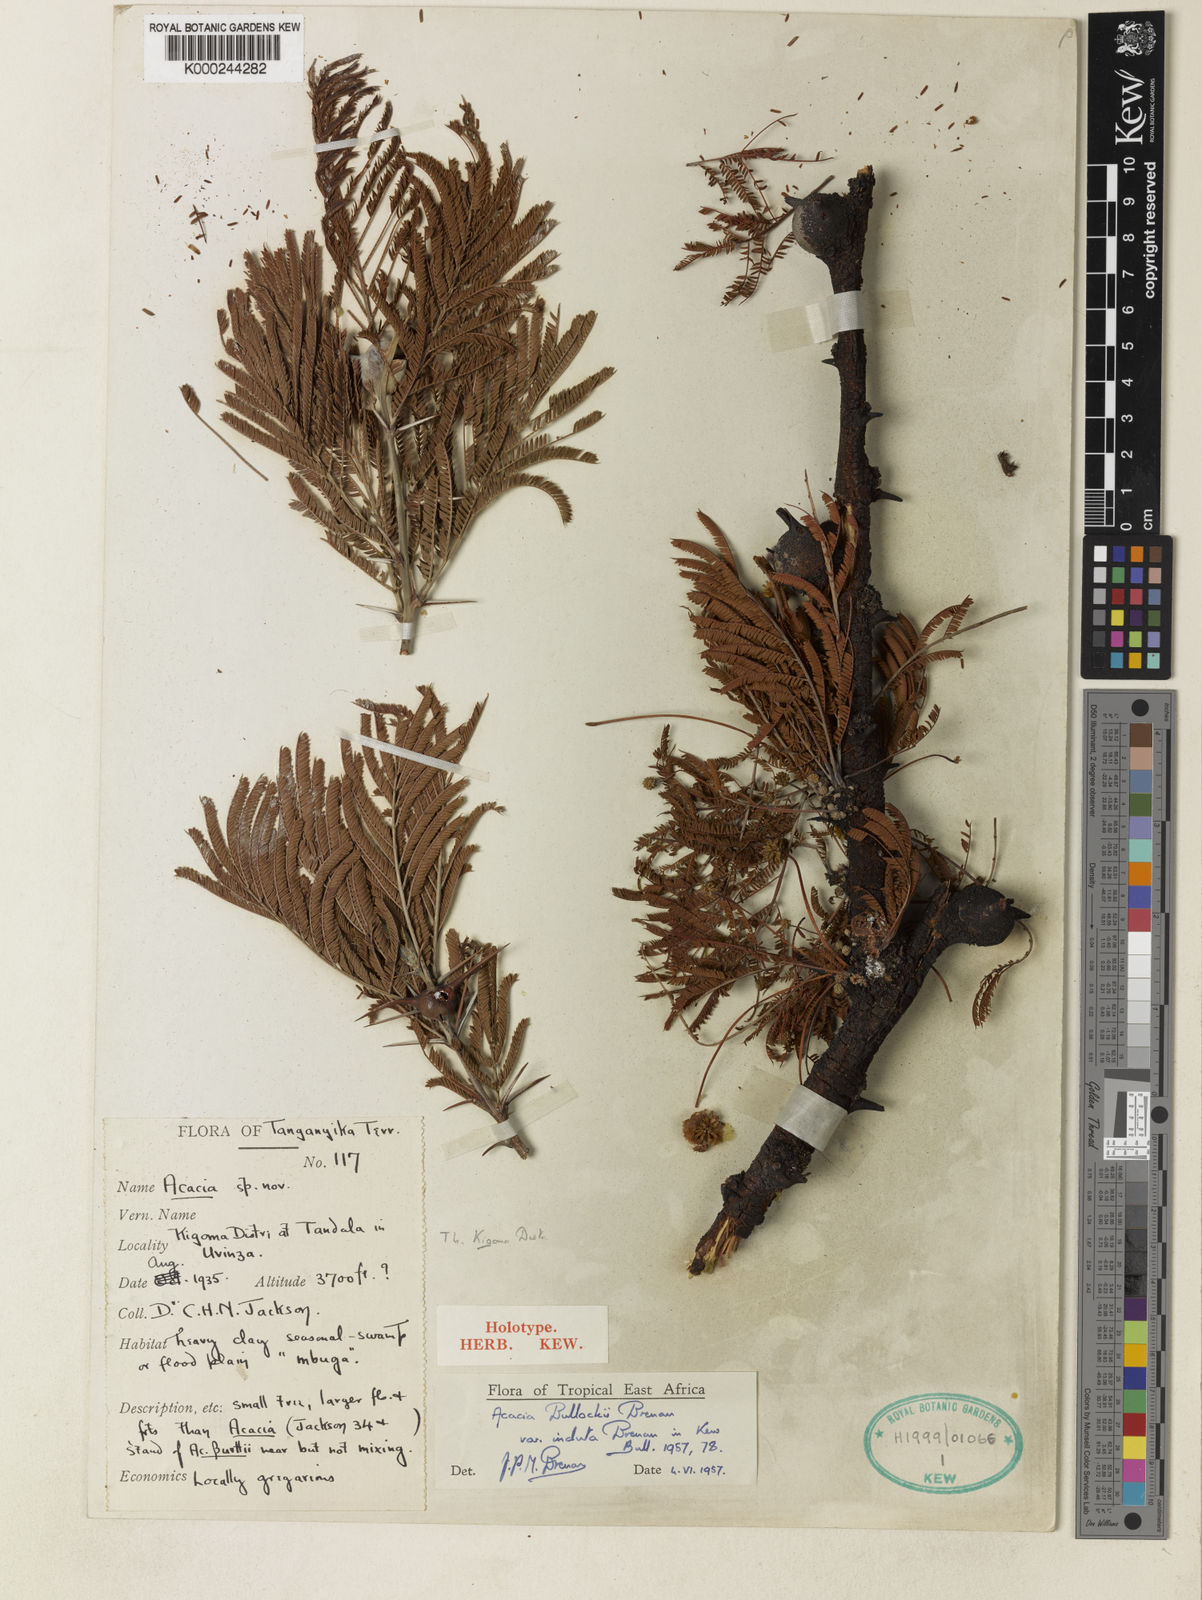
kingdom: Plantae
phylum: Tracheophyta
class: Magnoliopsida
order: Fabales
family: Fabaceae
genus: Vachellia
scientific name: Vachellia bullockii
